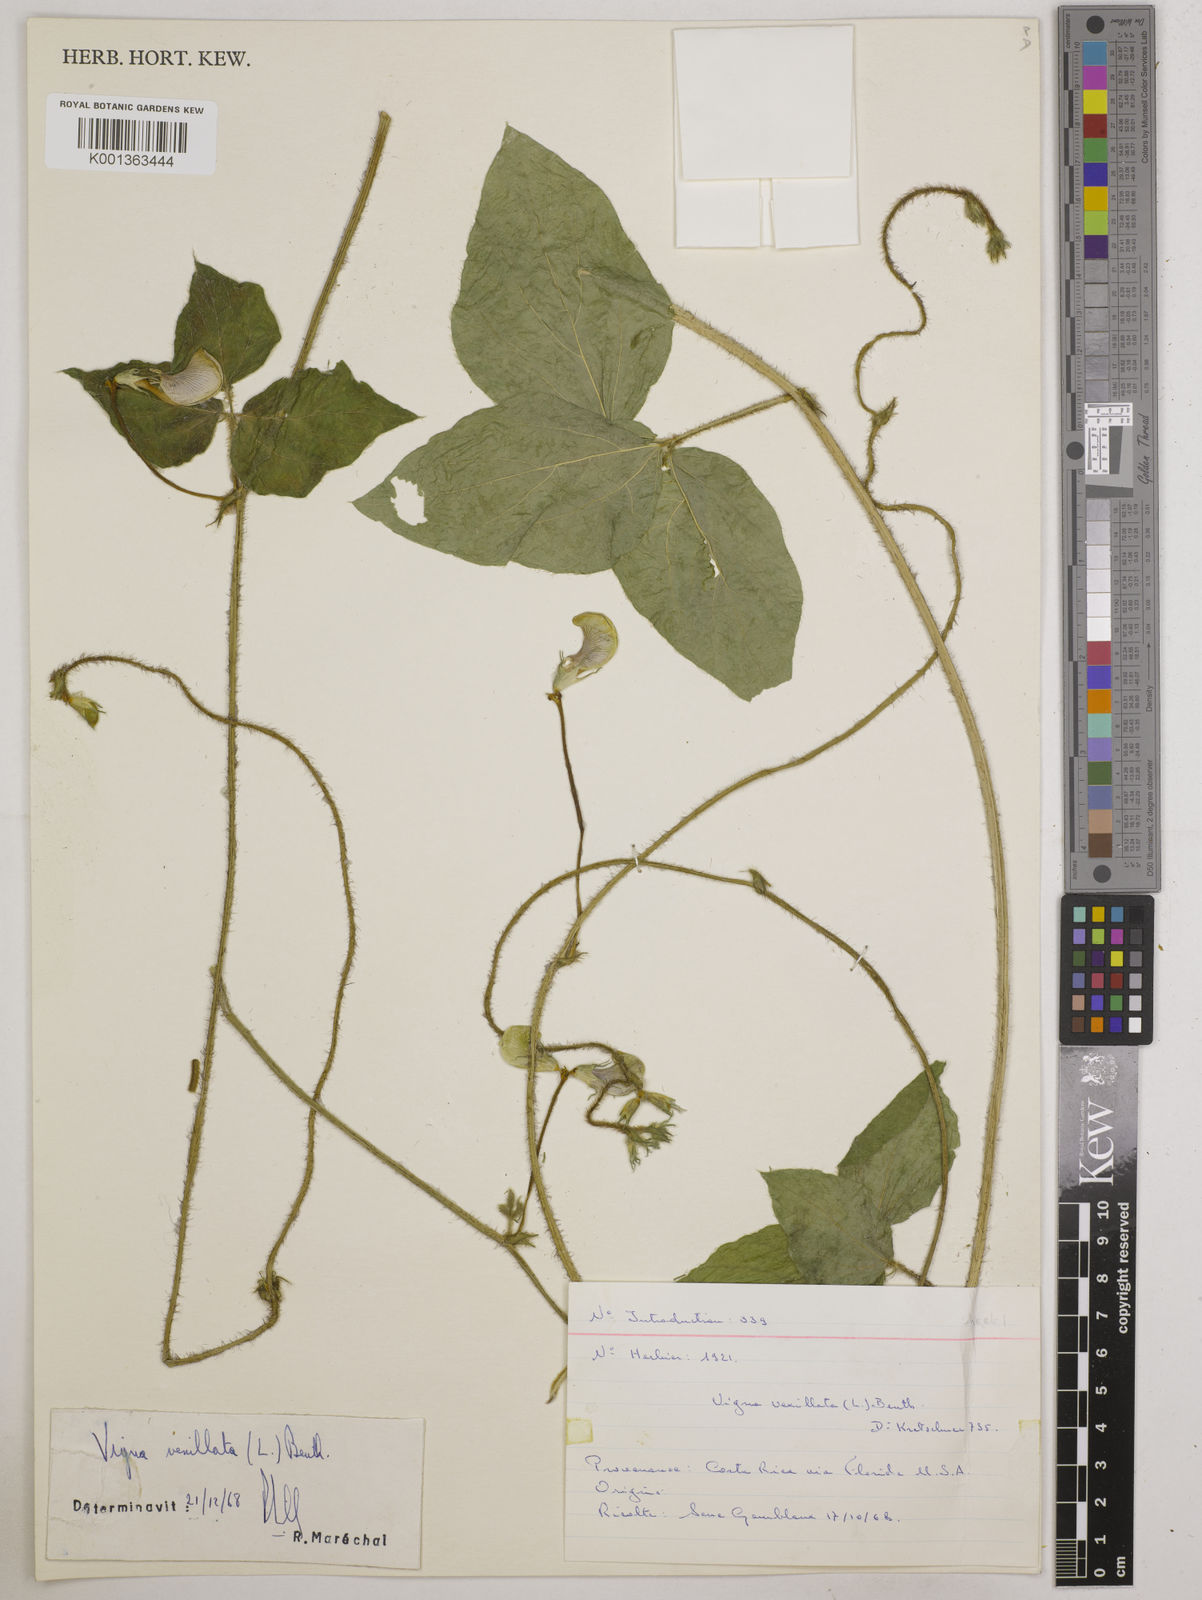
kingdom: Plantae
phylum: Tracheophyta
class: Magnoliopsida
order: Fabales
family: Fabaceae
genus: Vigna
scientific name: Vigna vexillata
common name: Zombi pea
